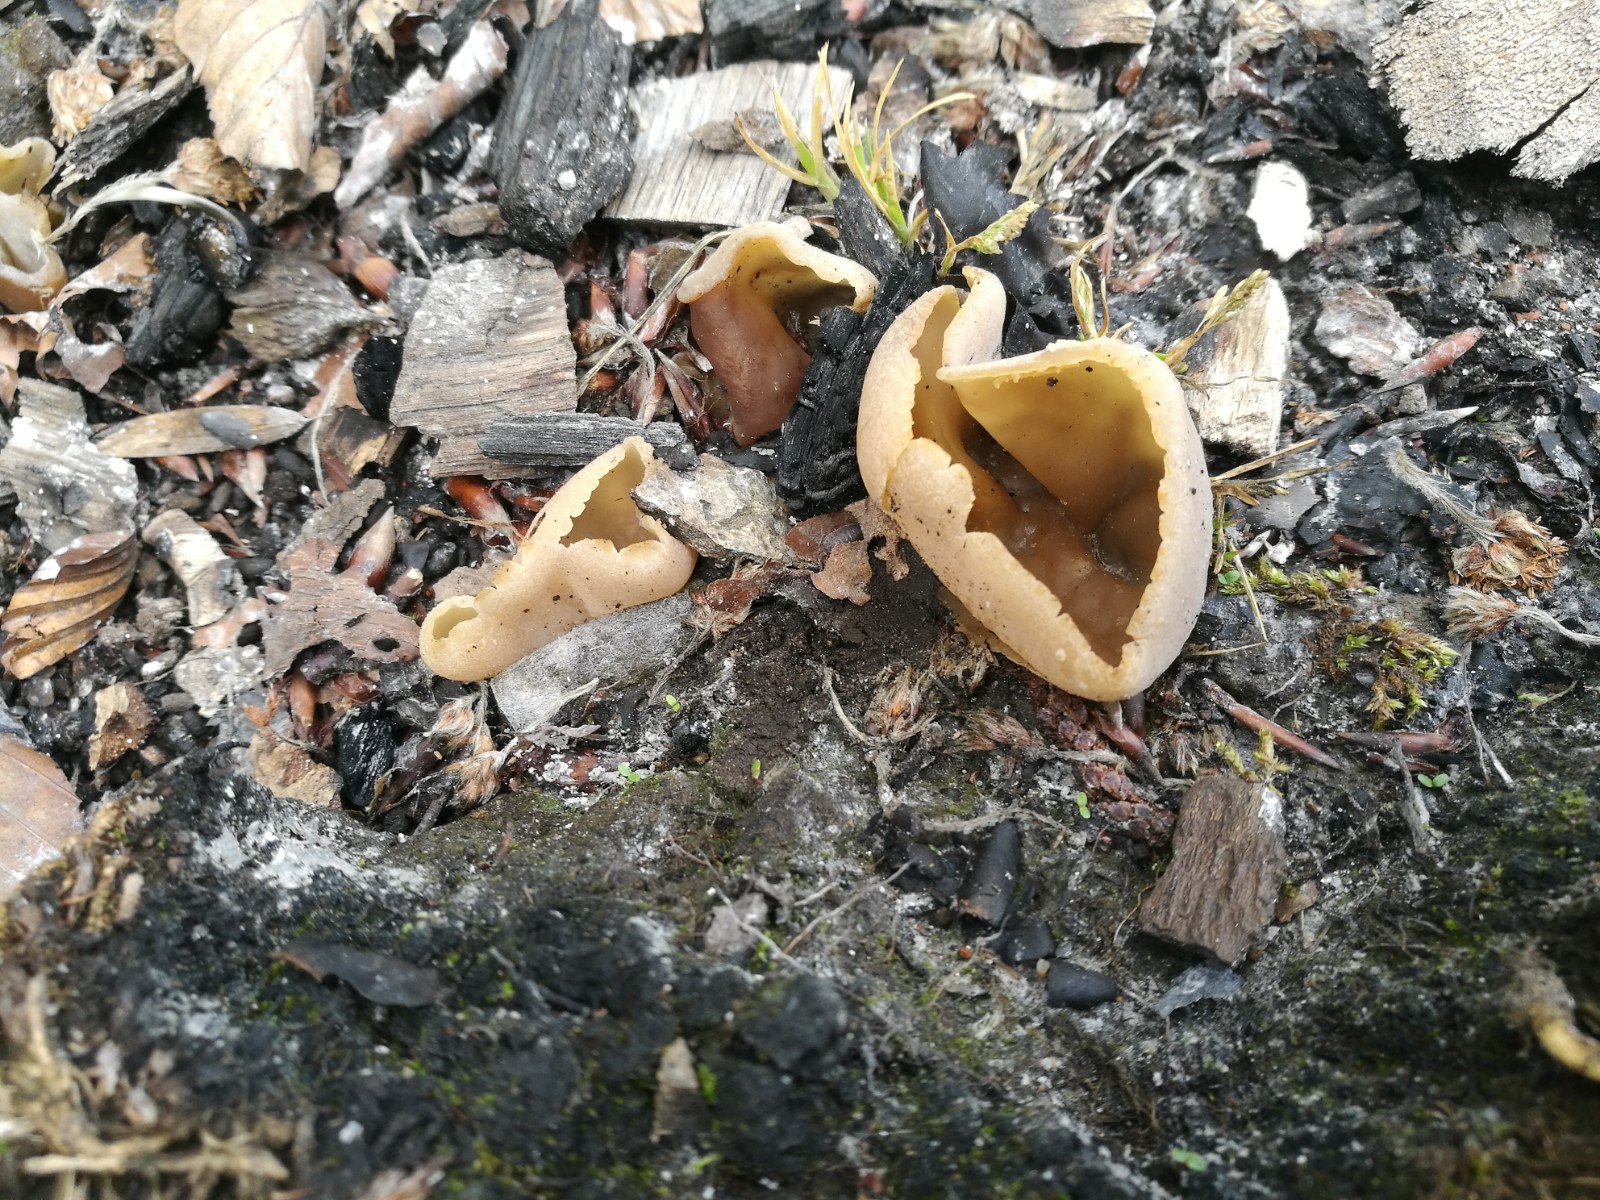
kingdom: Fungi
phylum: Ascomycota
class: Pezizomycetes
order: Pezizales
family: Pezizaceae
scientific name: Pezizaceae
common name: bægersvampfamilien
